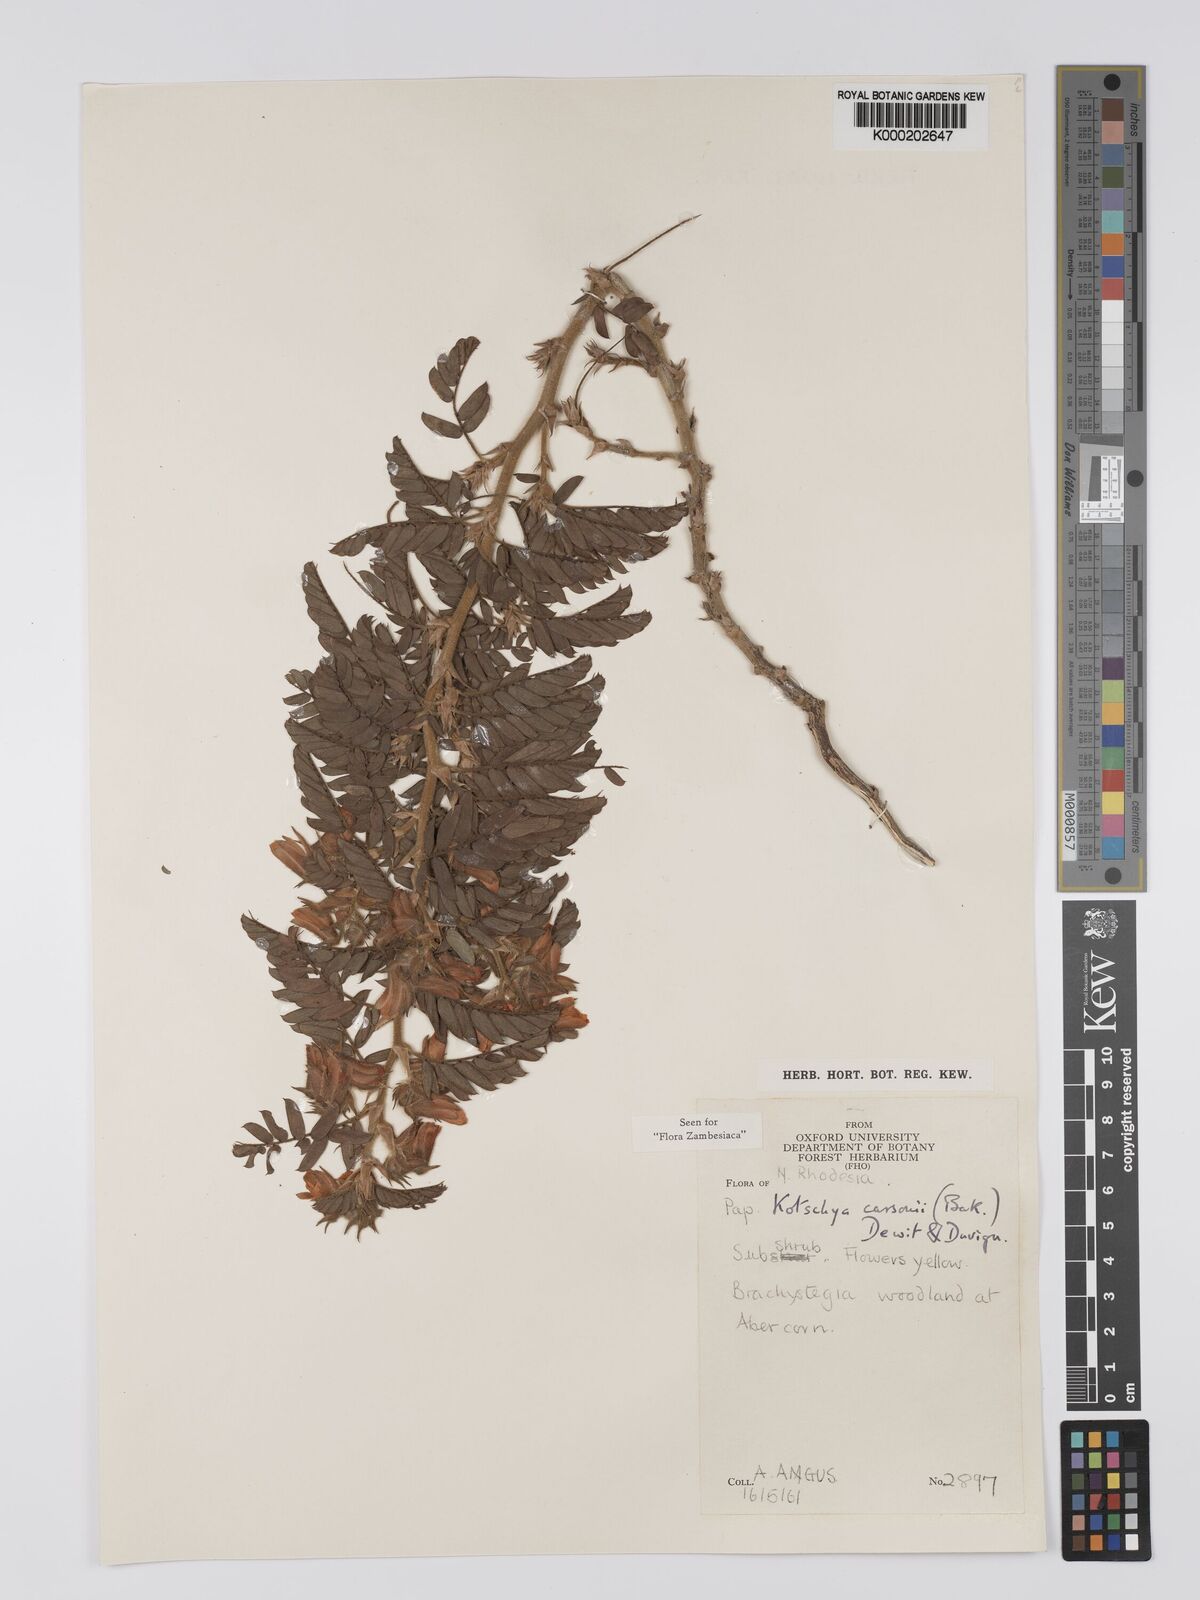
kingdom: Plantae
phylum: Tracheophyta
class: Magnoliopsida
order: Fabales
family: Fabaceae
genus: Kotschya
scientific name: Kotschya carsonii
